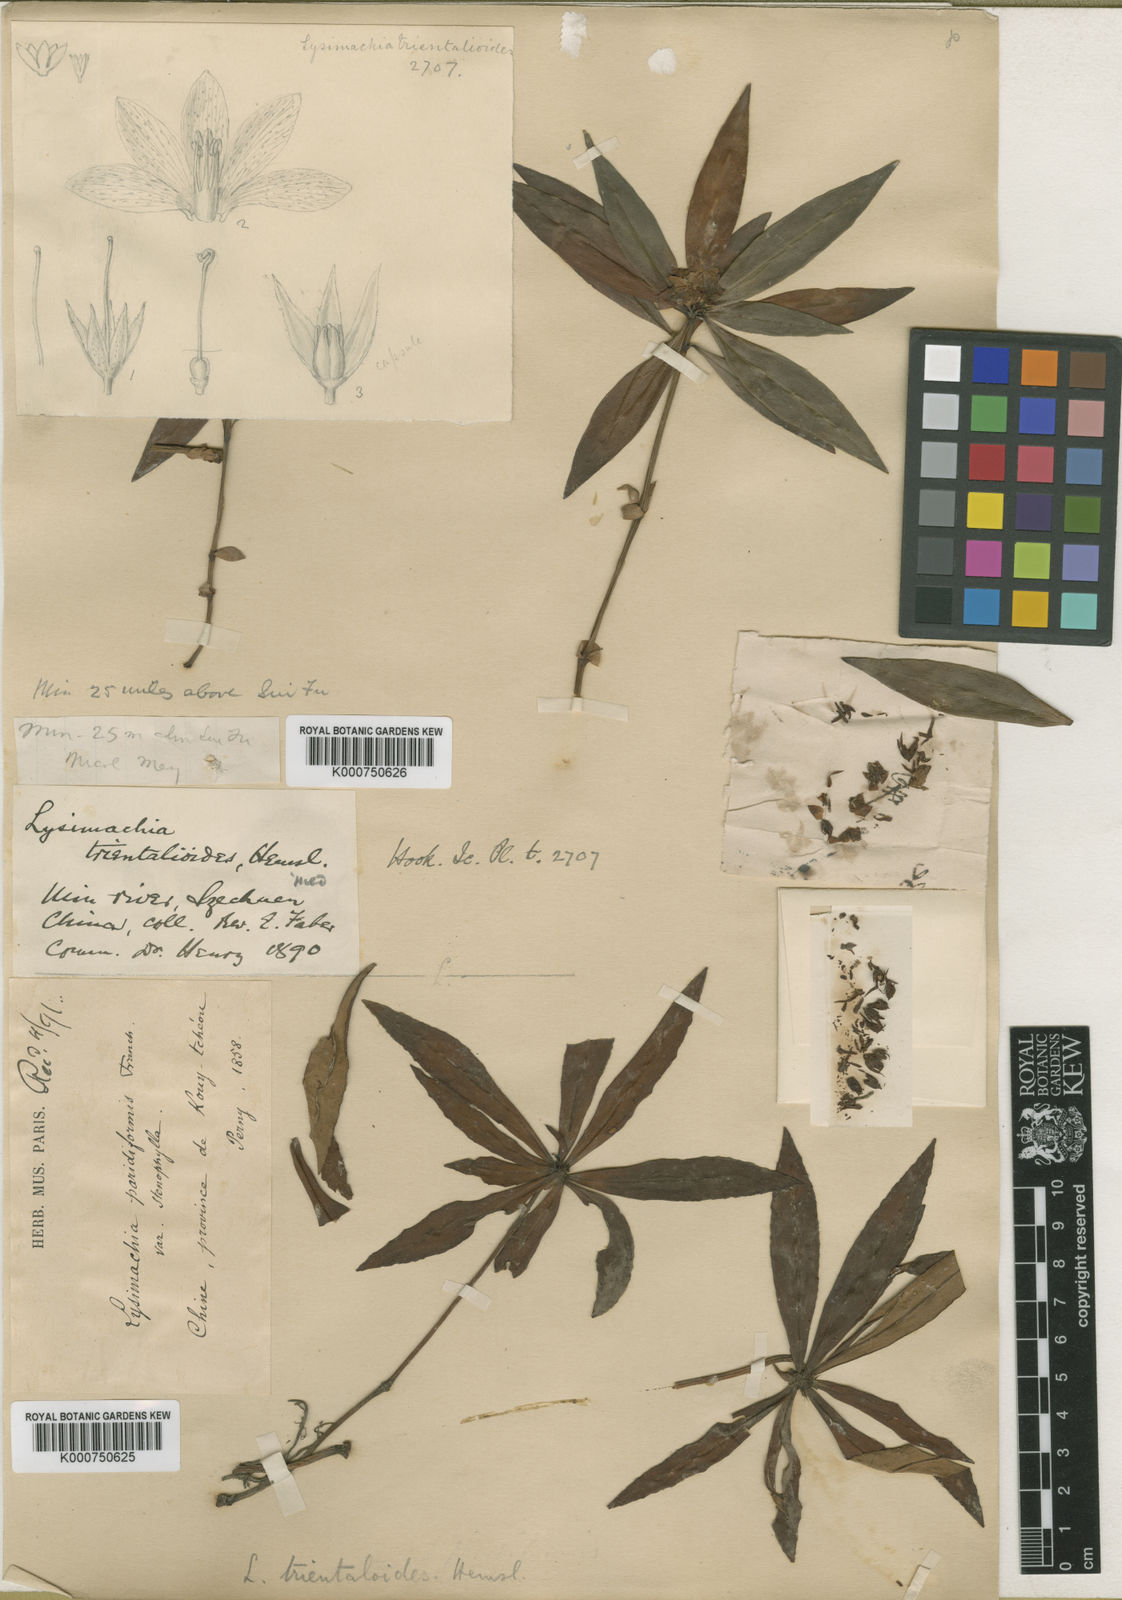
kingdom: Plantae
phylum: Tracheophyta
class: Magnoliopsida
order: Ericales
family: Primulaceae
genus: Lysimachia
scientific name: Lysimachia paridiformis
